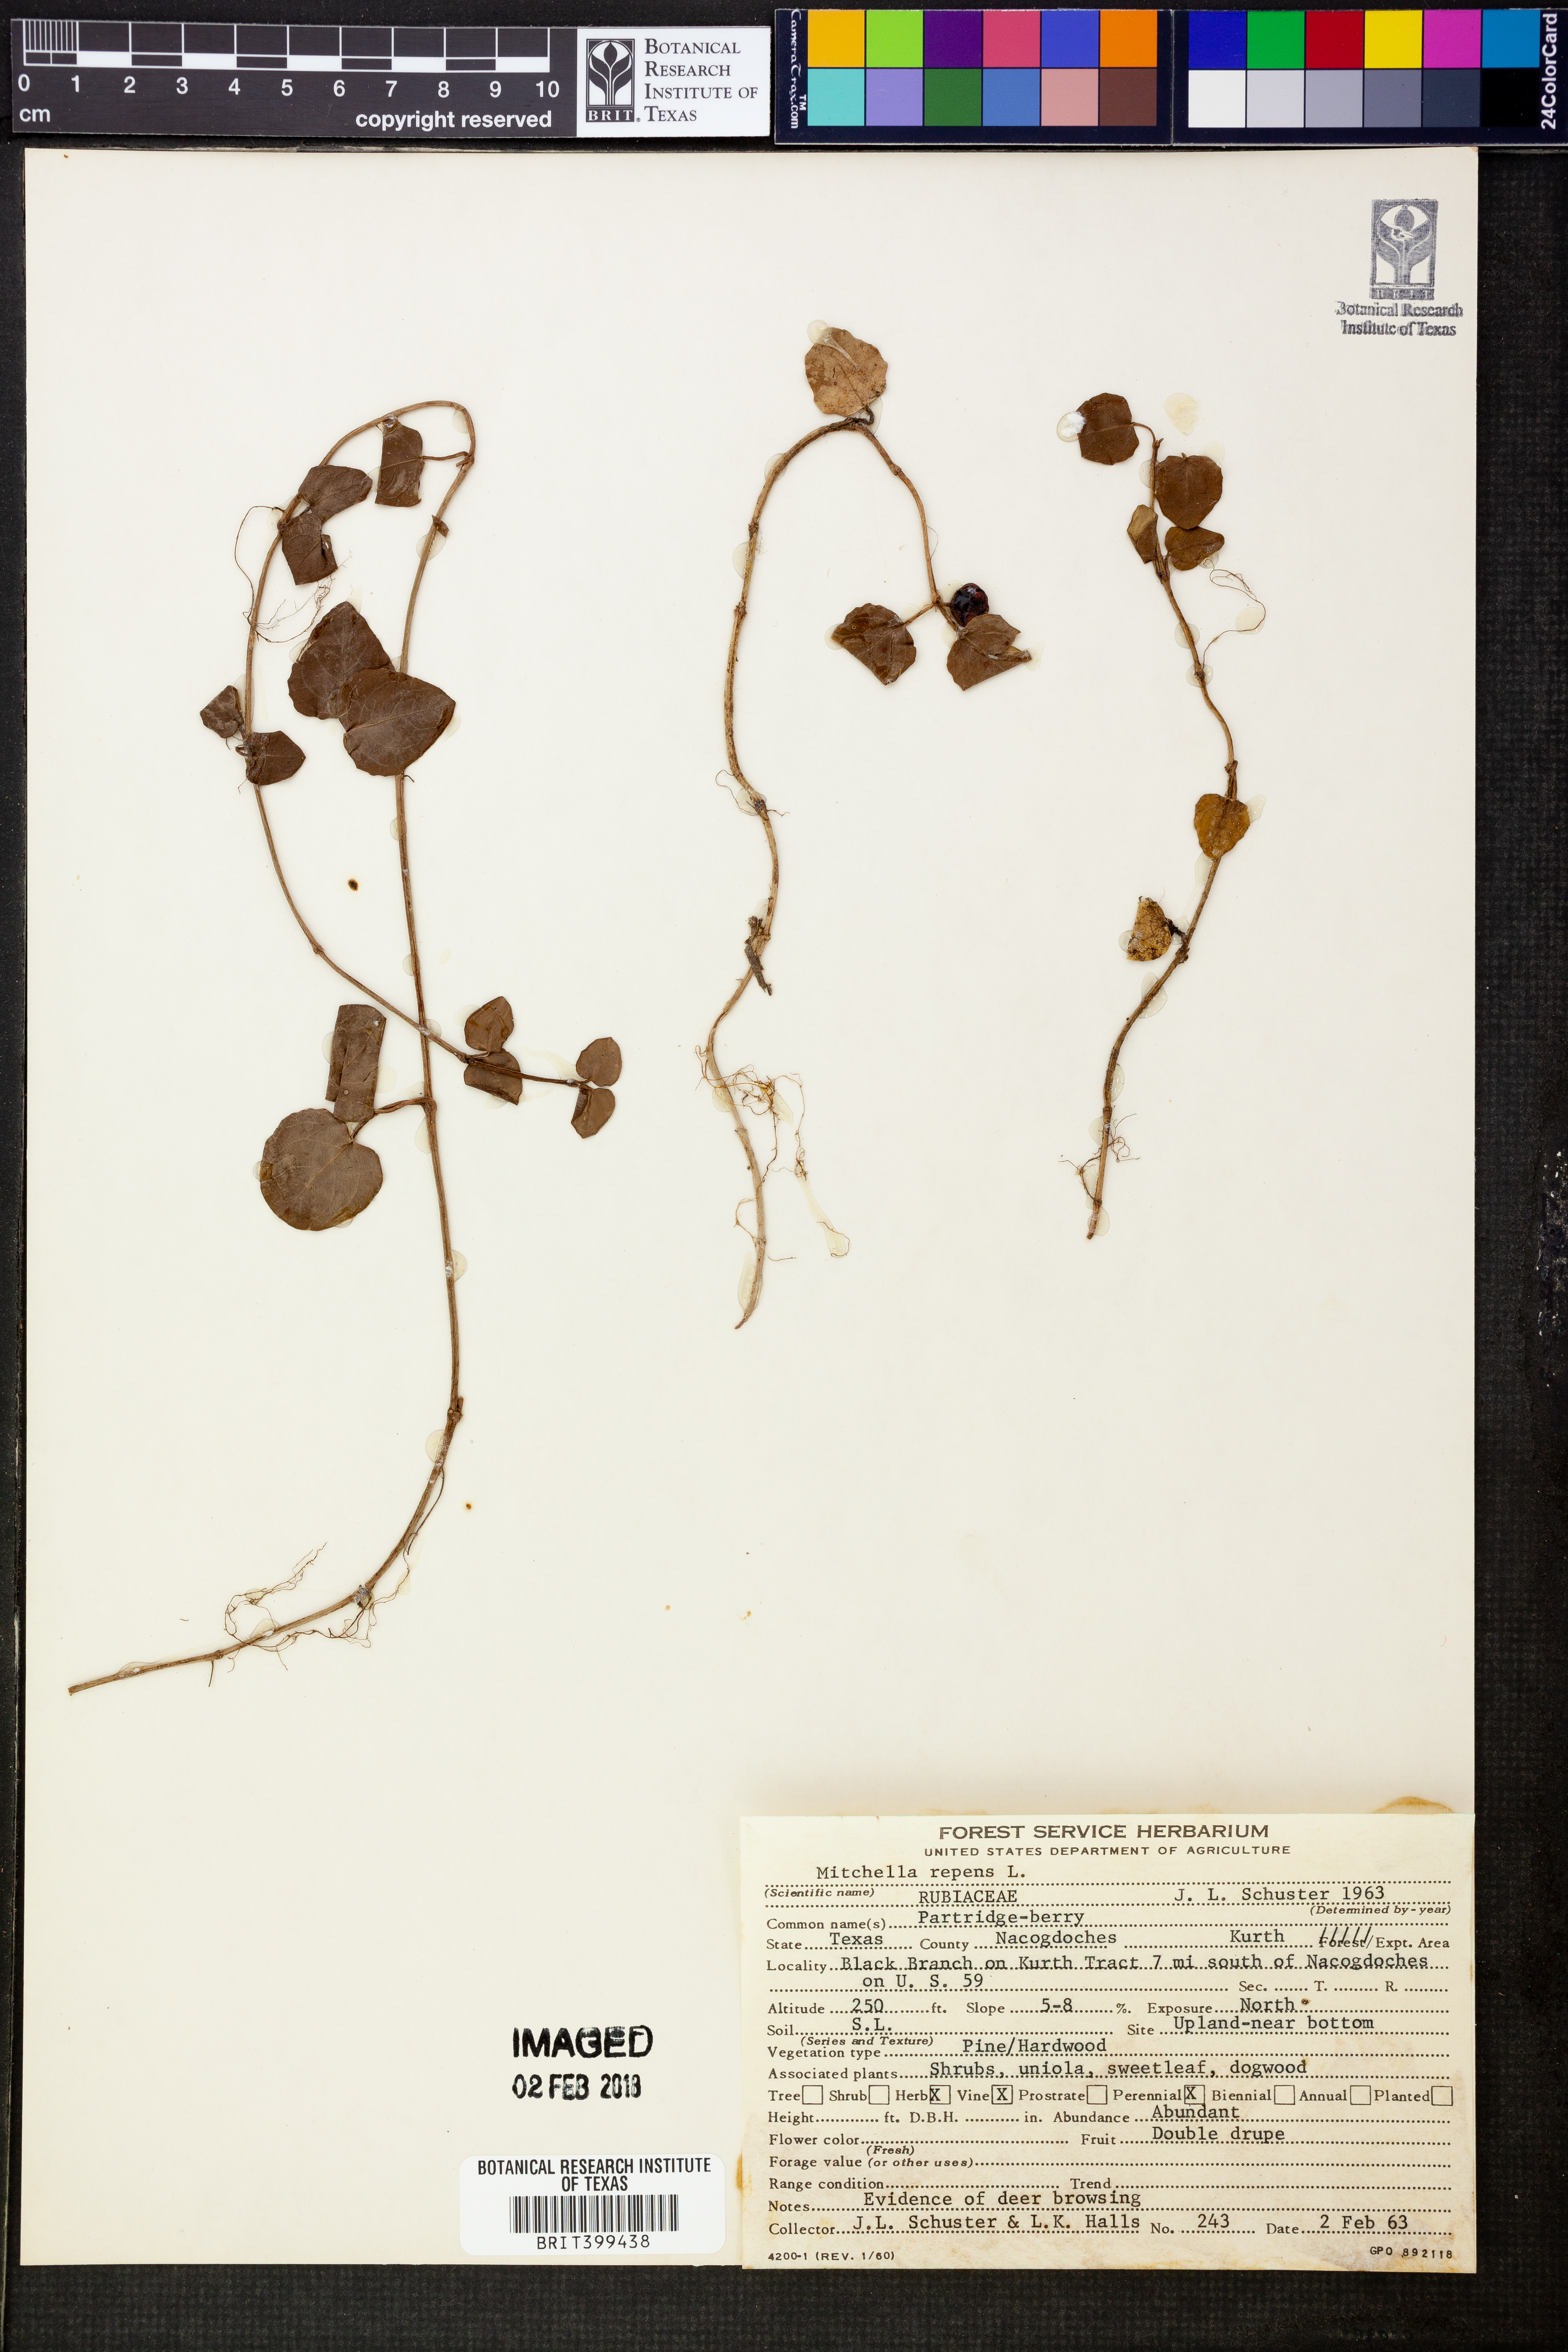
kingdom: Plantae
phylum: Tracheophyta
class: Magnoliopsida
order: Gentianales
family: Rubiaceae
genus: Mitchella
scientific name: Mitchella repens
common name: Partridge-berry
